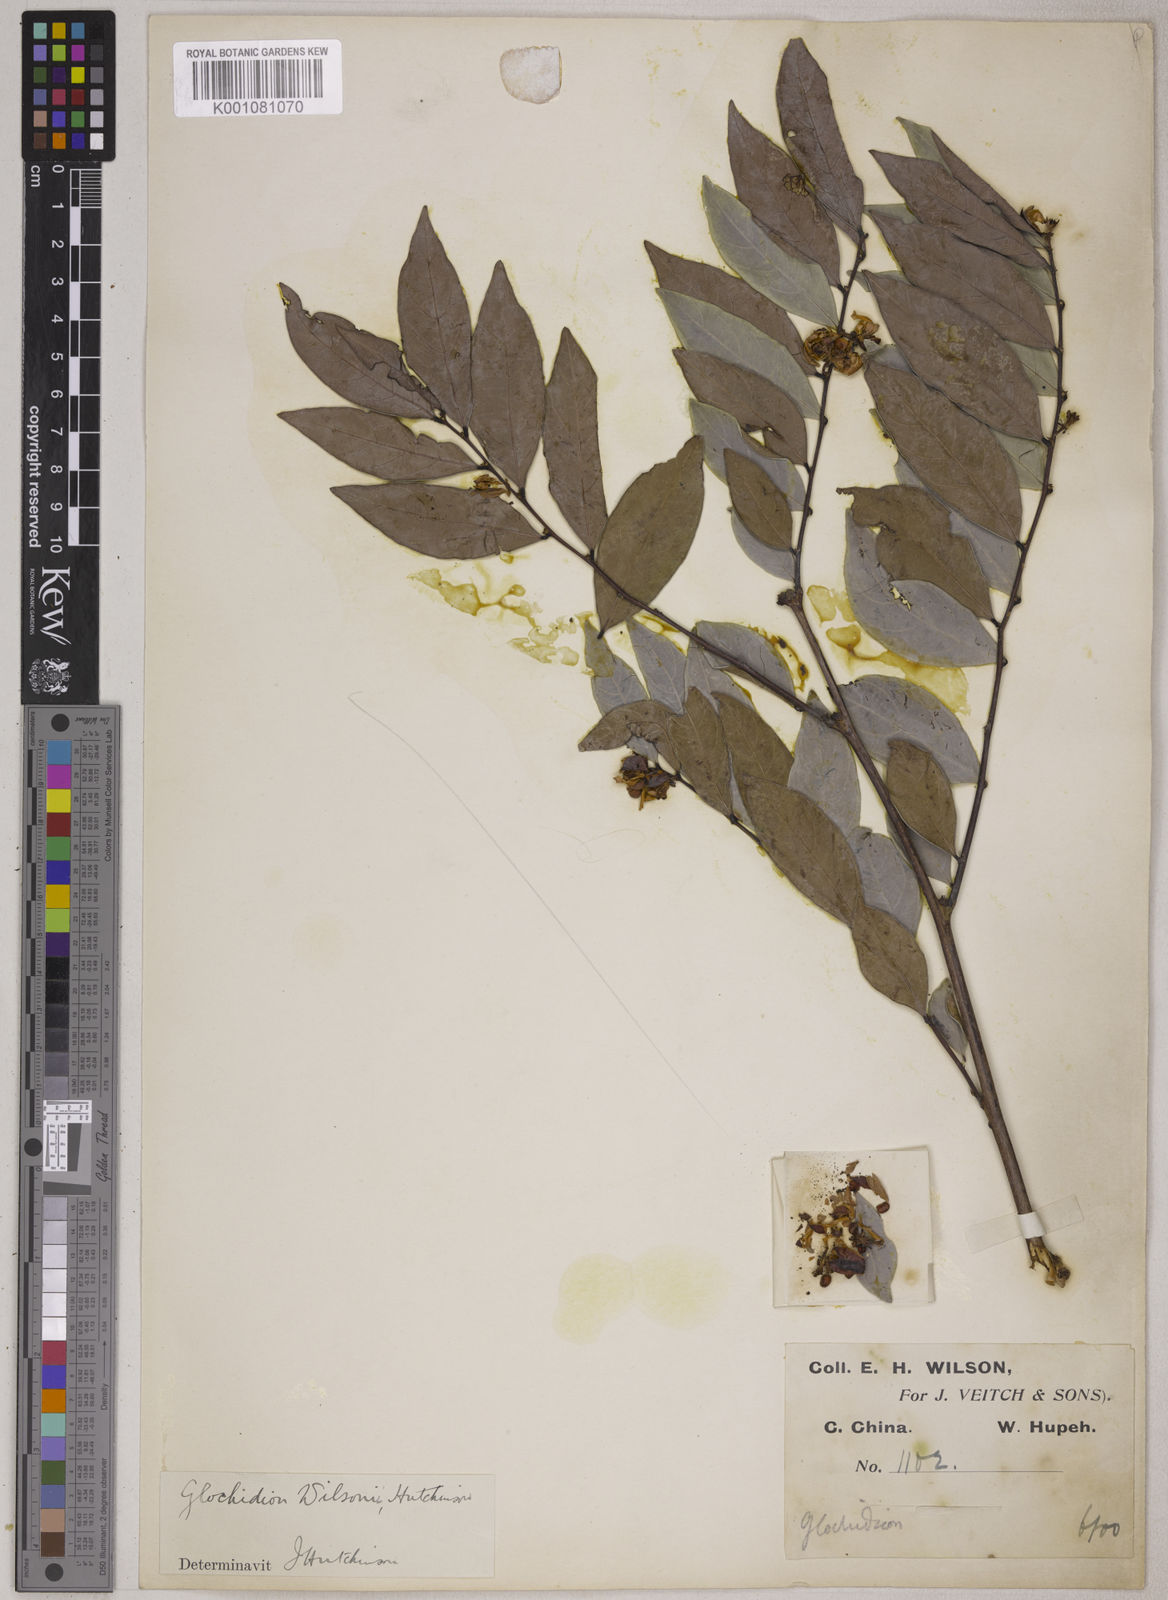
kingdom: Plantae
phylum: Tracheophyta
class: Magnoliopsida
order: Malpighiales
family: Phyllanthaceae
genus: Glochidion
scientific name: Glochidion wilsonii
